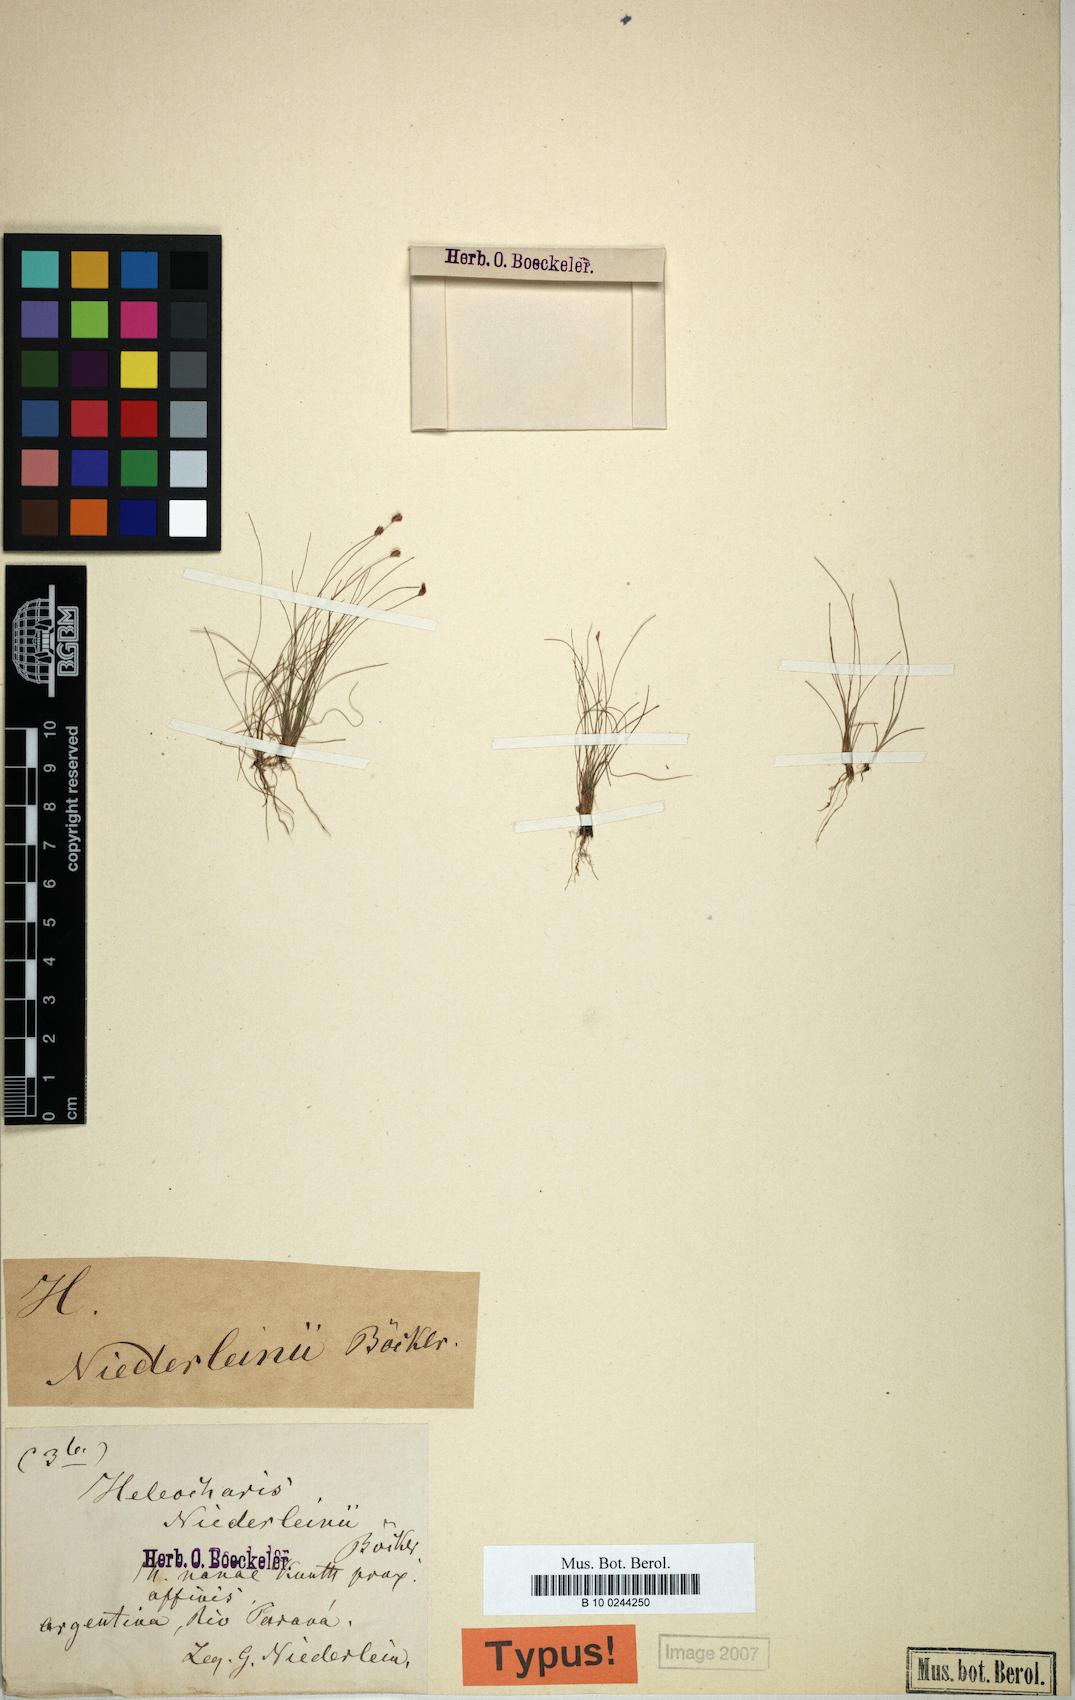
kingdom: Plantae
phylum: Tracheophyta
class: Liliopsida
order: Poales
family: Cyperaceae
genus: Eleocharis
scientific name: Eleocharis viridans
